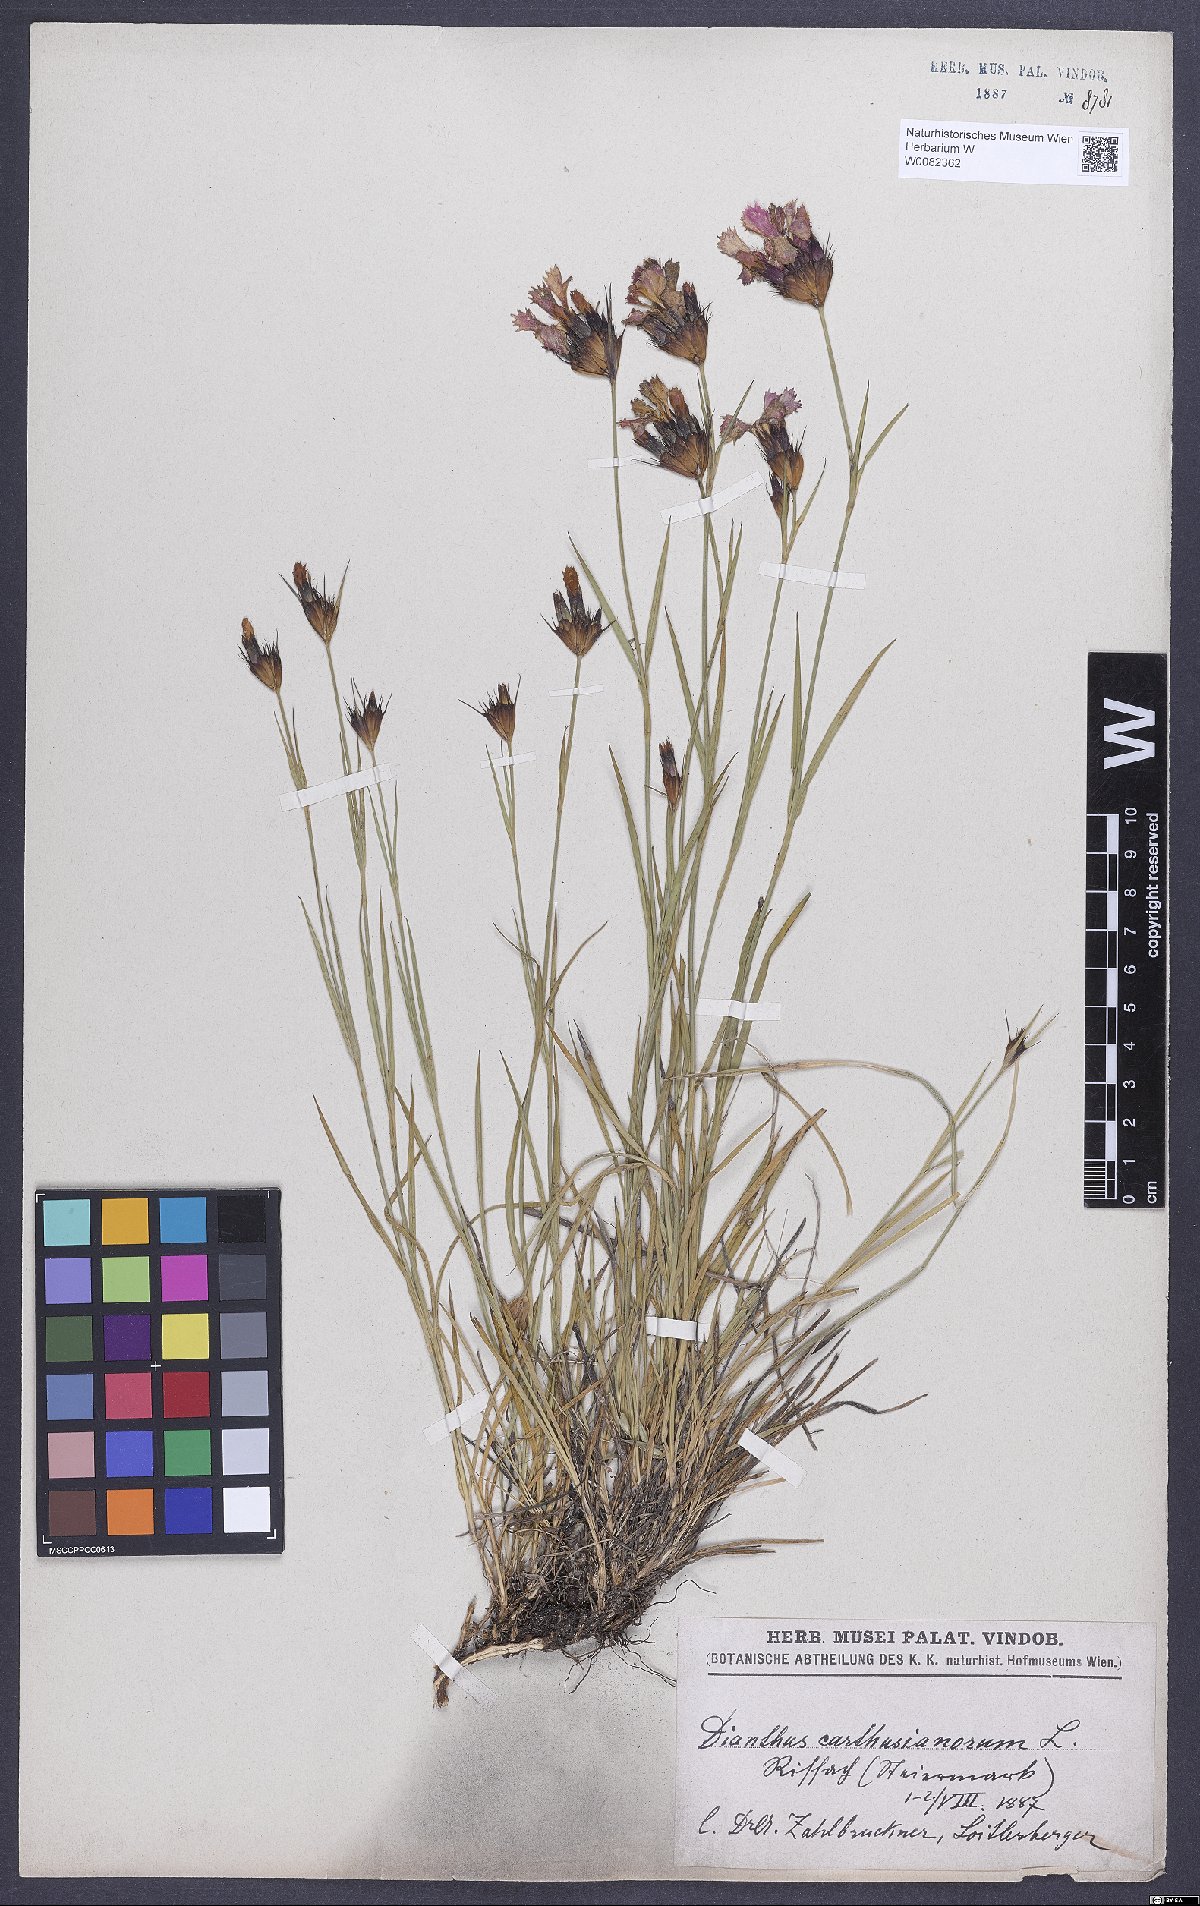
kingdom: Plantae
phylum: Tracheophyta
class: Magnoliopsida
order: Caryophyllales
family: Caryophyllaceae
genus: Dianthus
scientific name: Dianthus carthusianorum
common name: Carthusian pink
